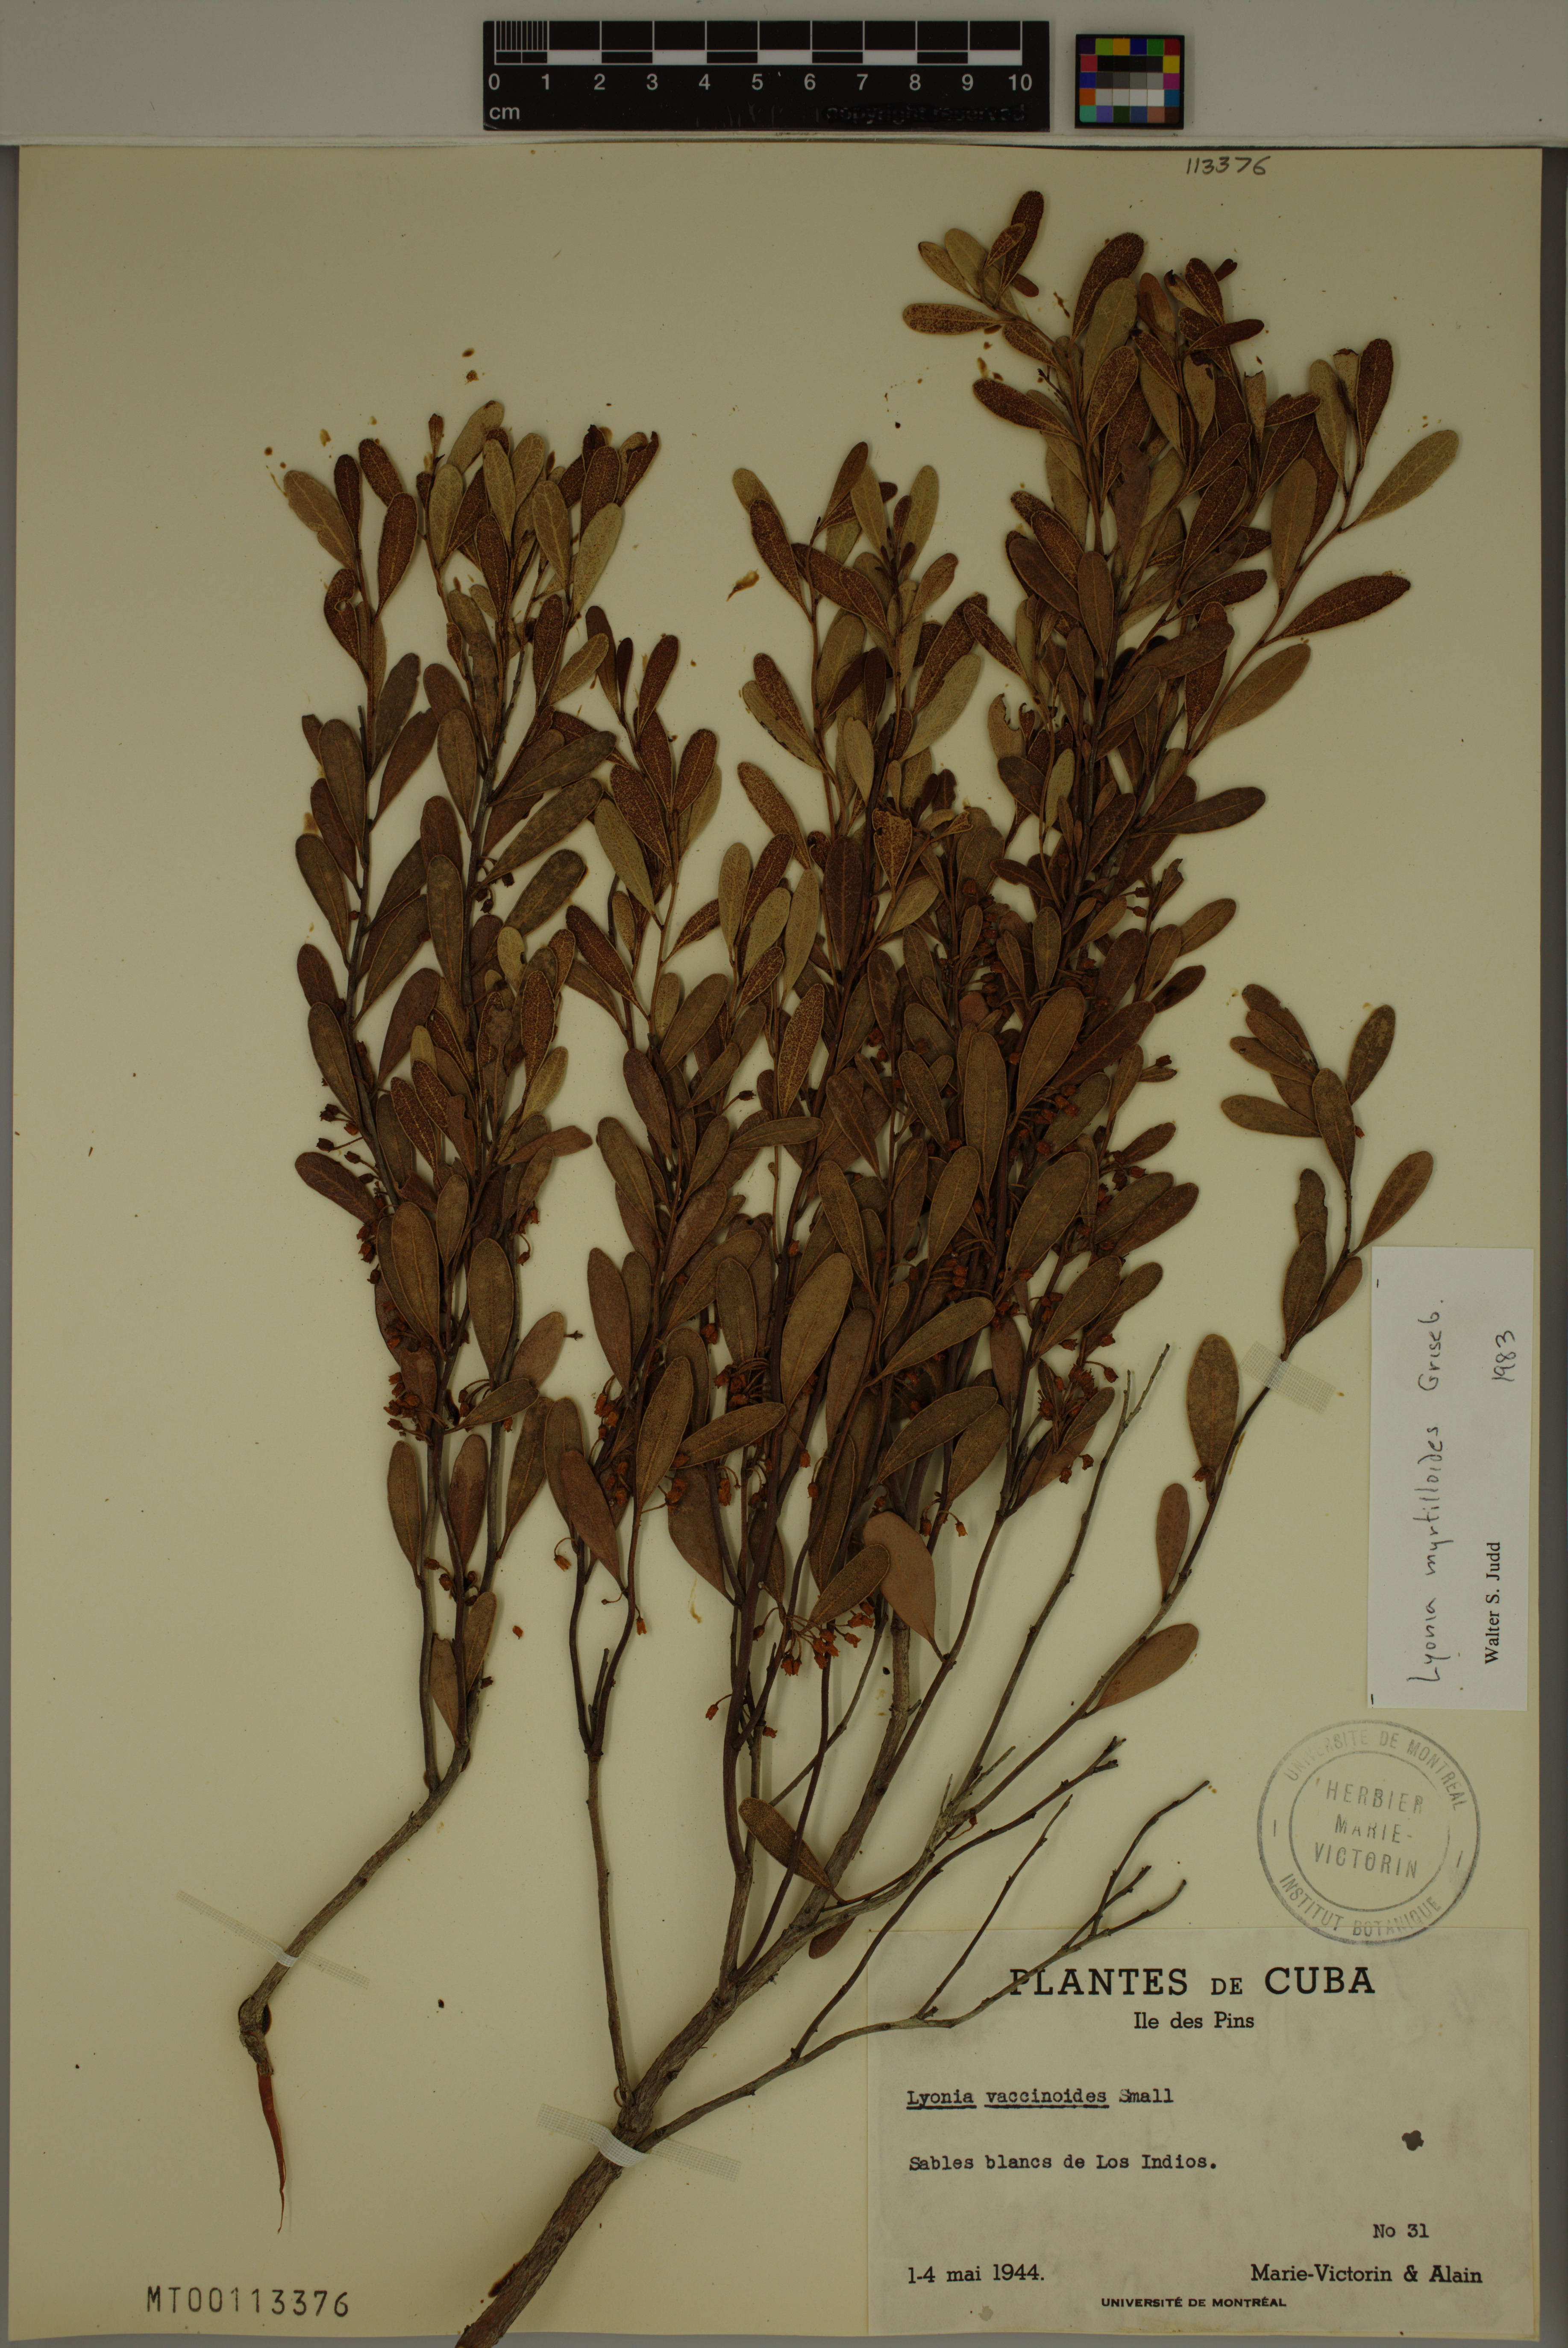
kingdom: Plantae
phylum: Tracheophyta
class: Magnoliopsida
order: Ericales
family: Ericaceae
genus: Lyonia
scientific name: Lyonia myrtilloides
